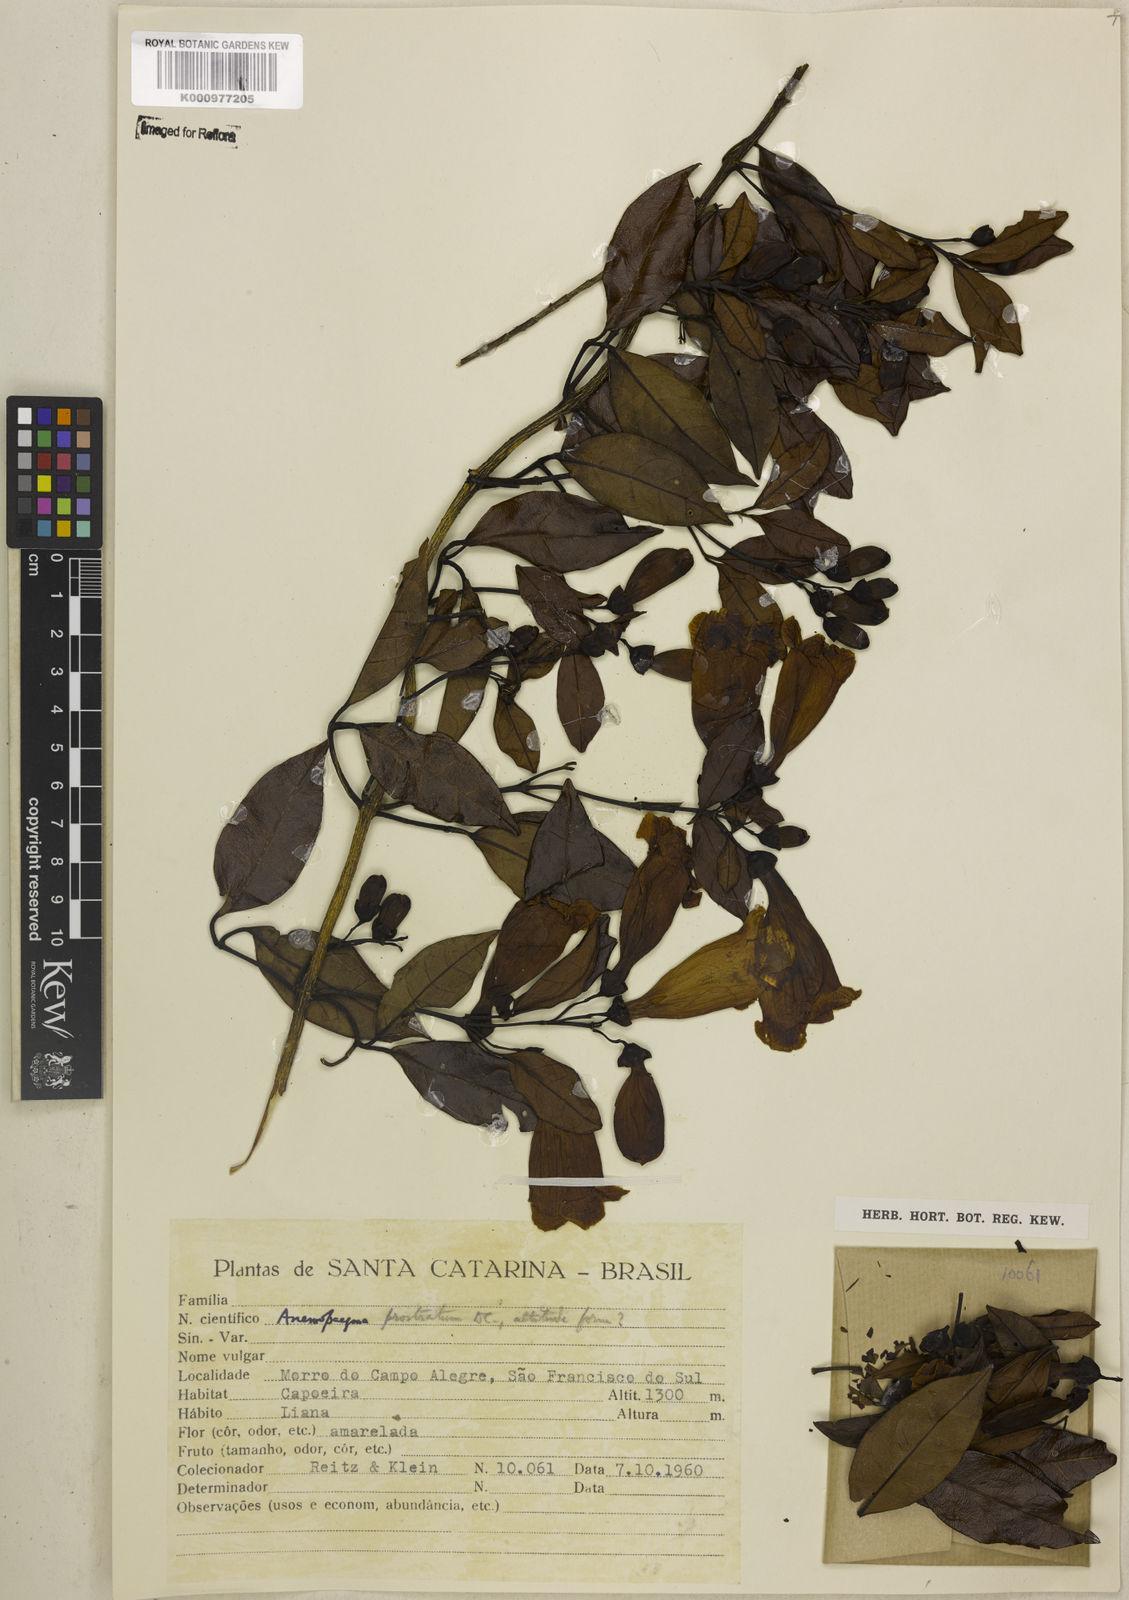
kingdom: Plantae
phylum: Tracheophyta
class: Magnoliopsida
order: Lamiales
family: Bignoniaceae
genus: Anemopaegma
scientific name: Anemopaegma nebulosum
